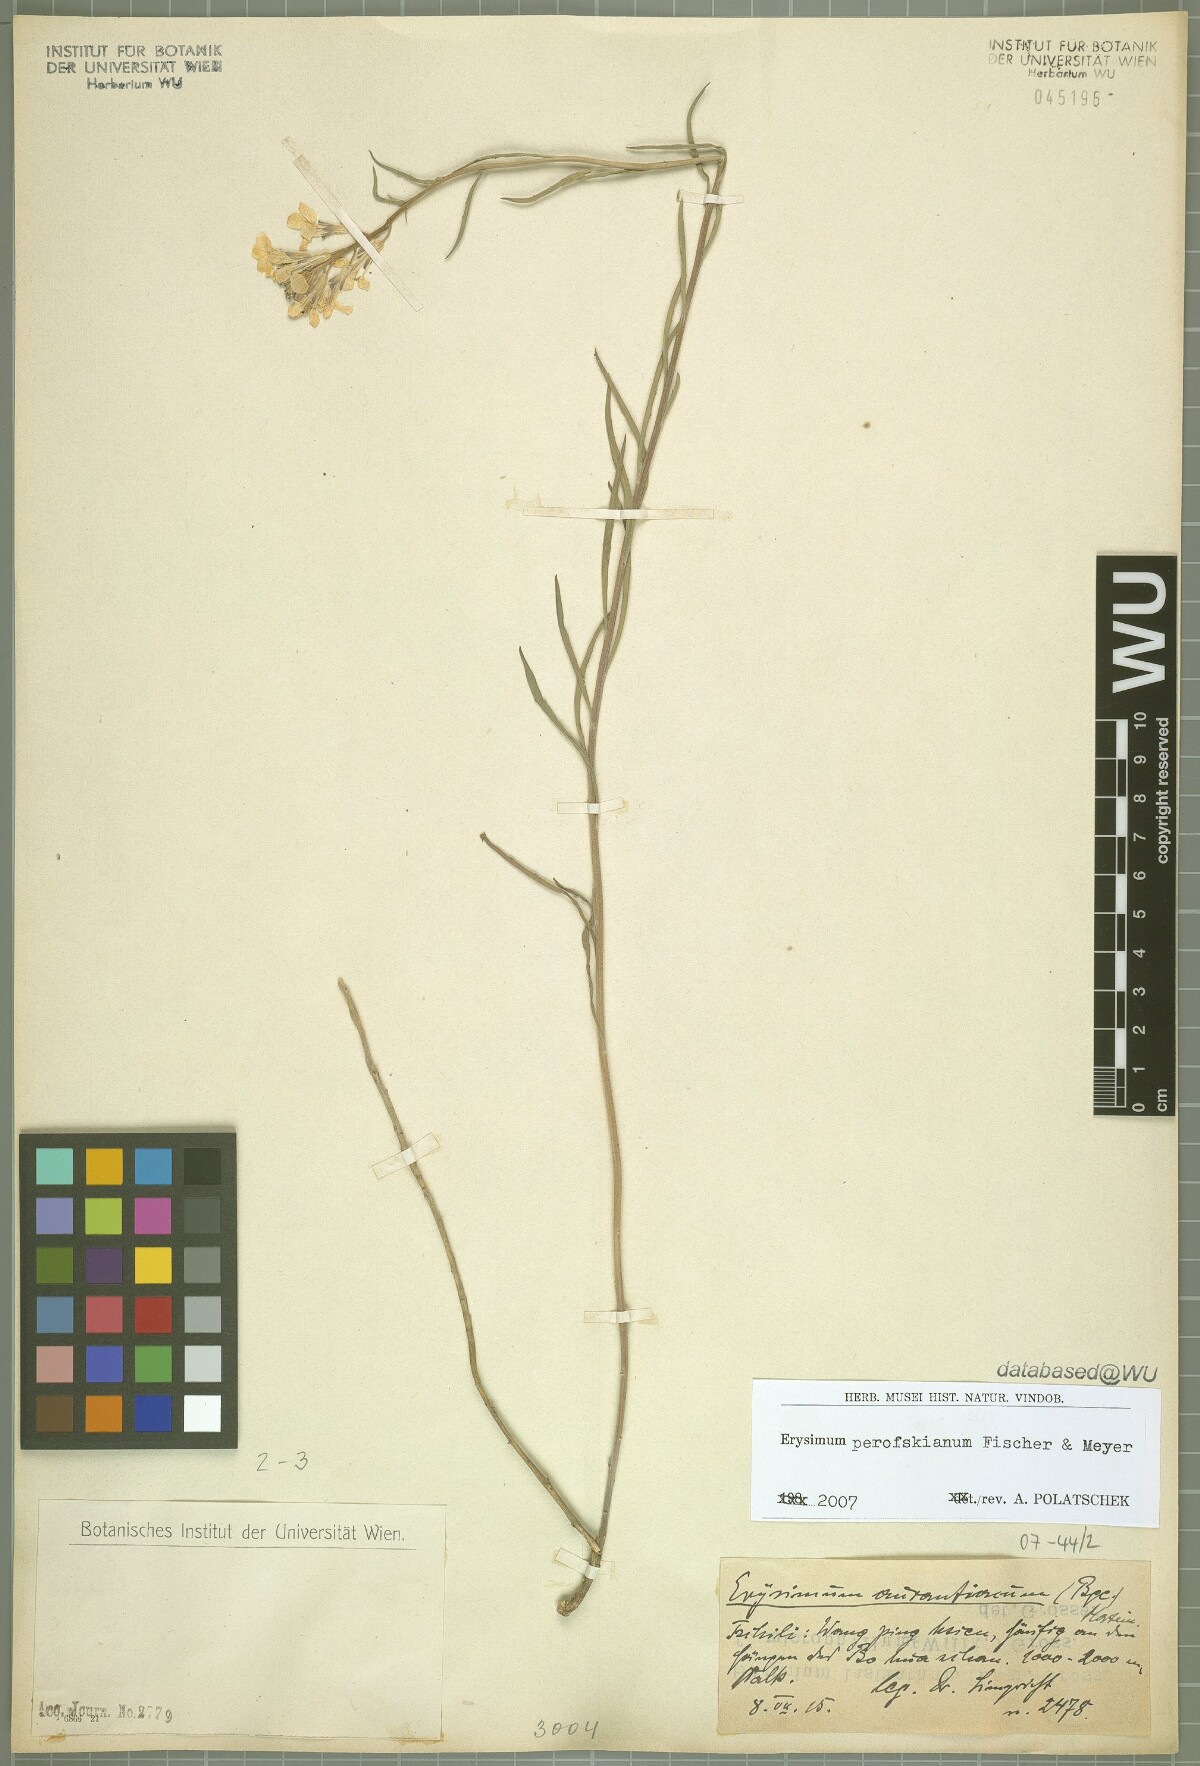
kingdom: Plantae
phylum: Tracheophyta
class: Magnoliopsida
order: Brassicales
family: Brassicaceae
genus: Erysimum
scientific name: Erysimum perofskianum
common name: Afghan erysimum
